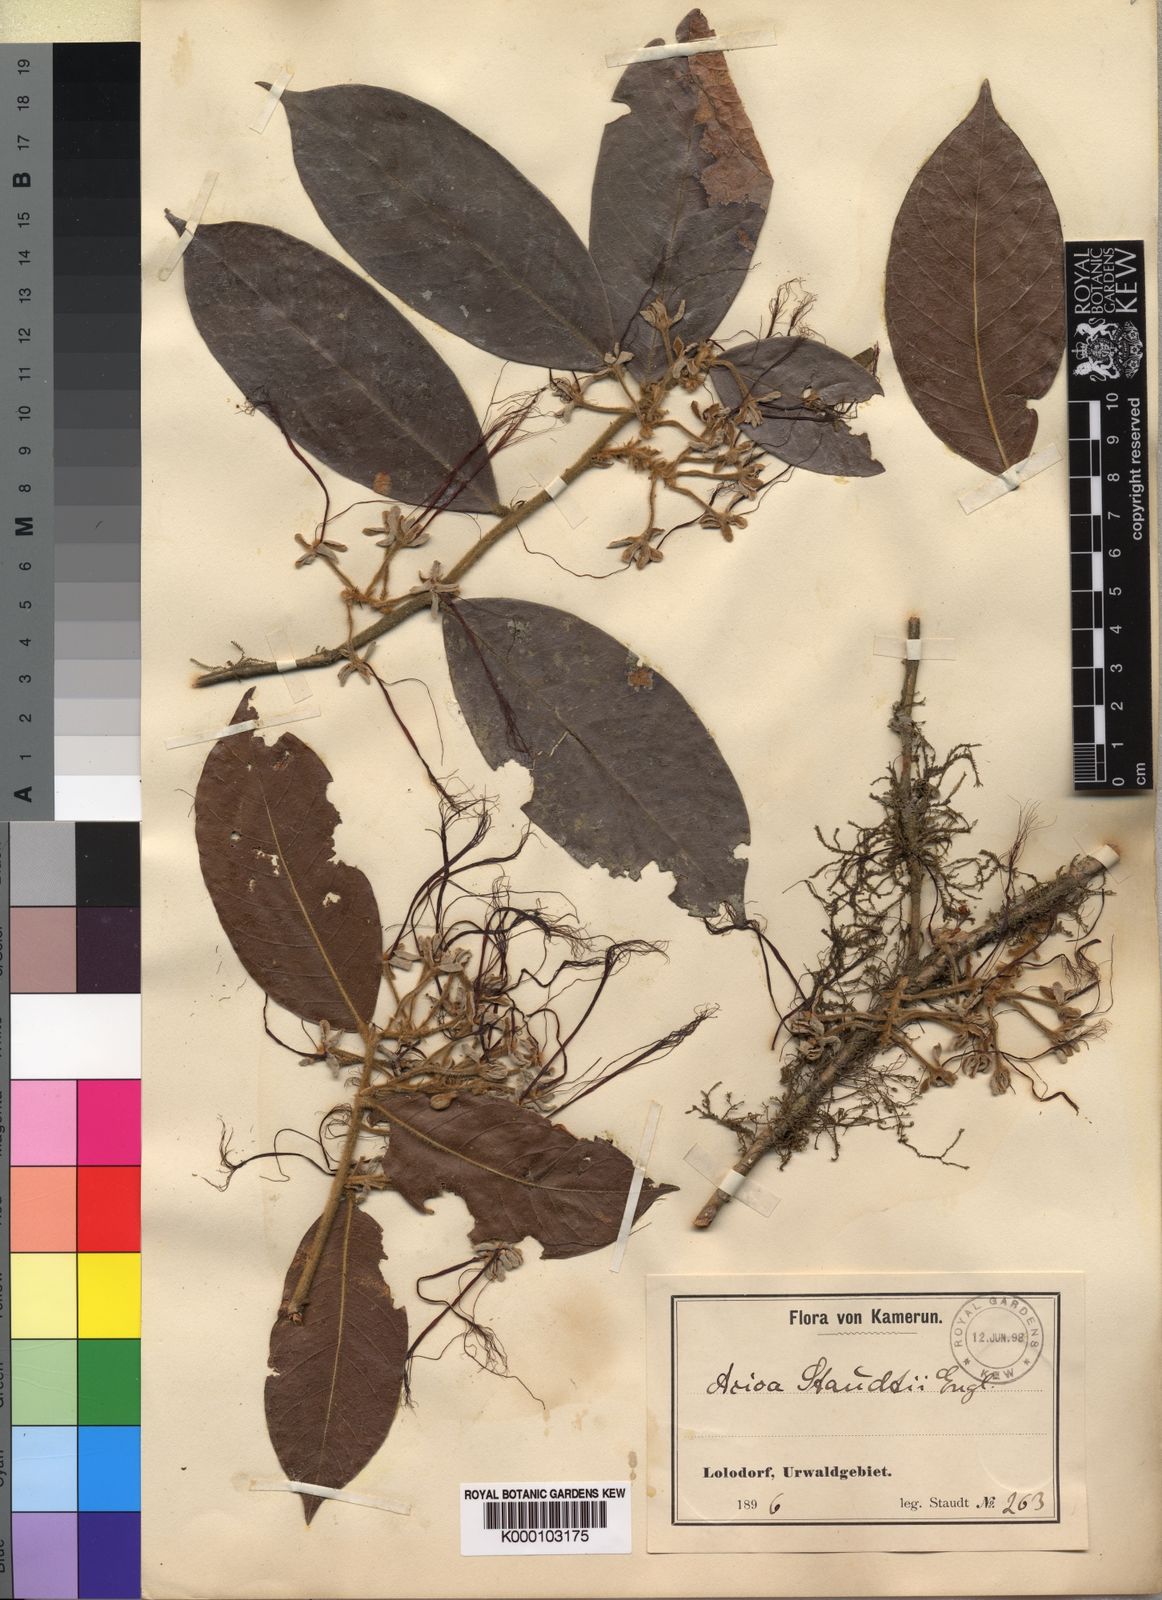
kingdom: Plantae
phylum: Tracheophyta
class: Magnoliopsida
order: Malpighiales
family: Chrysobalanaceae
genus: Dactyladenia
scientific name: Dactyladenia staudtii
